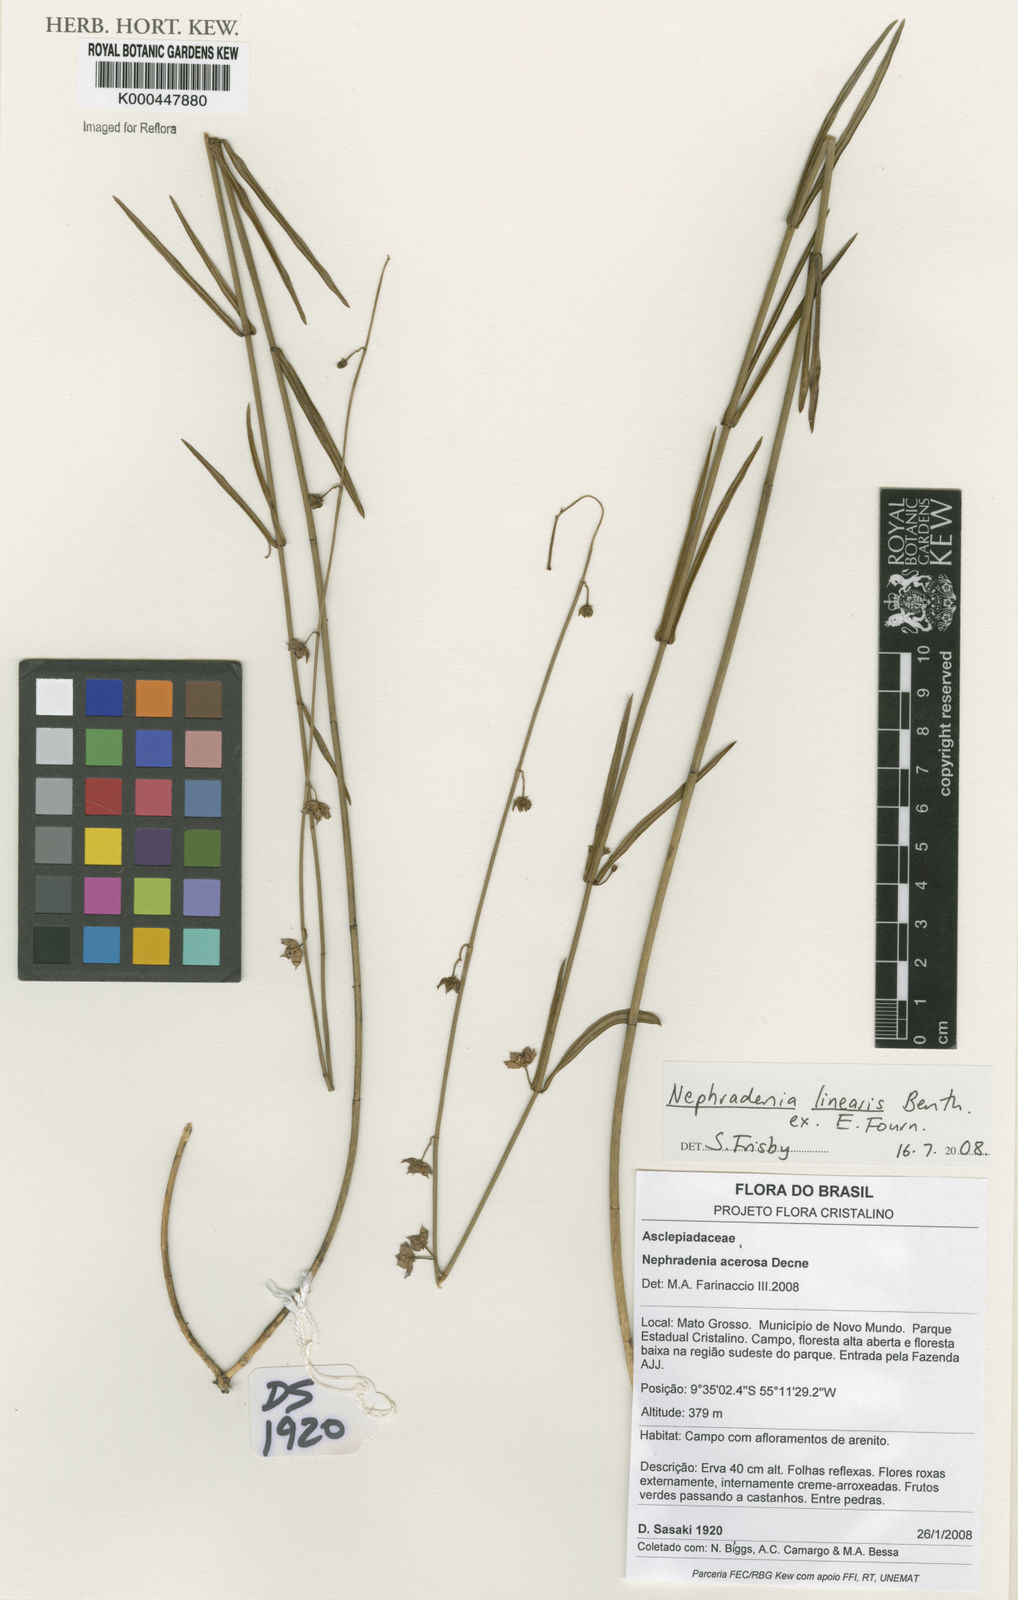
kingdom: Plantae
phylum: Tracheophyta
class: Magnoliopsida
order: Gentianales
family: Apocynaceae
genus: Nephradenia
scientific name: Nephradenia
